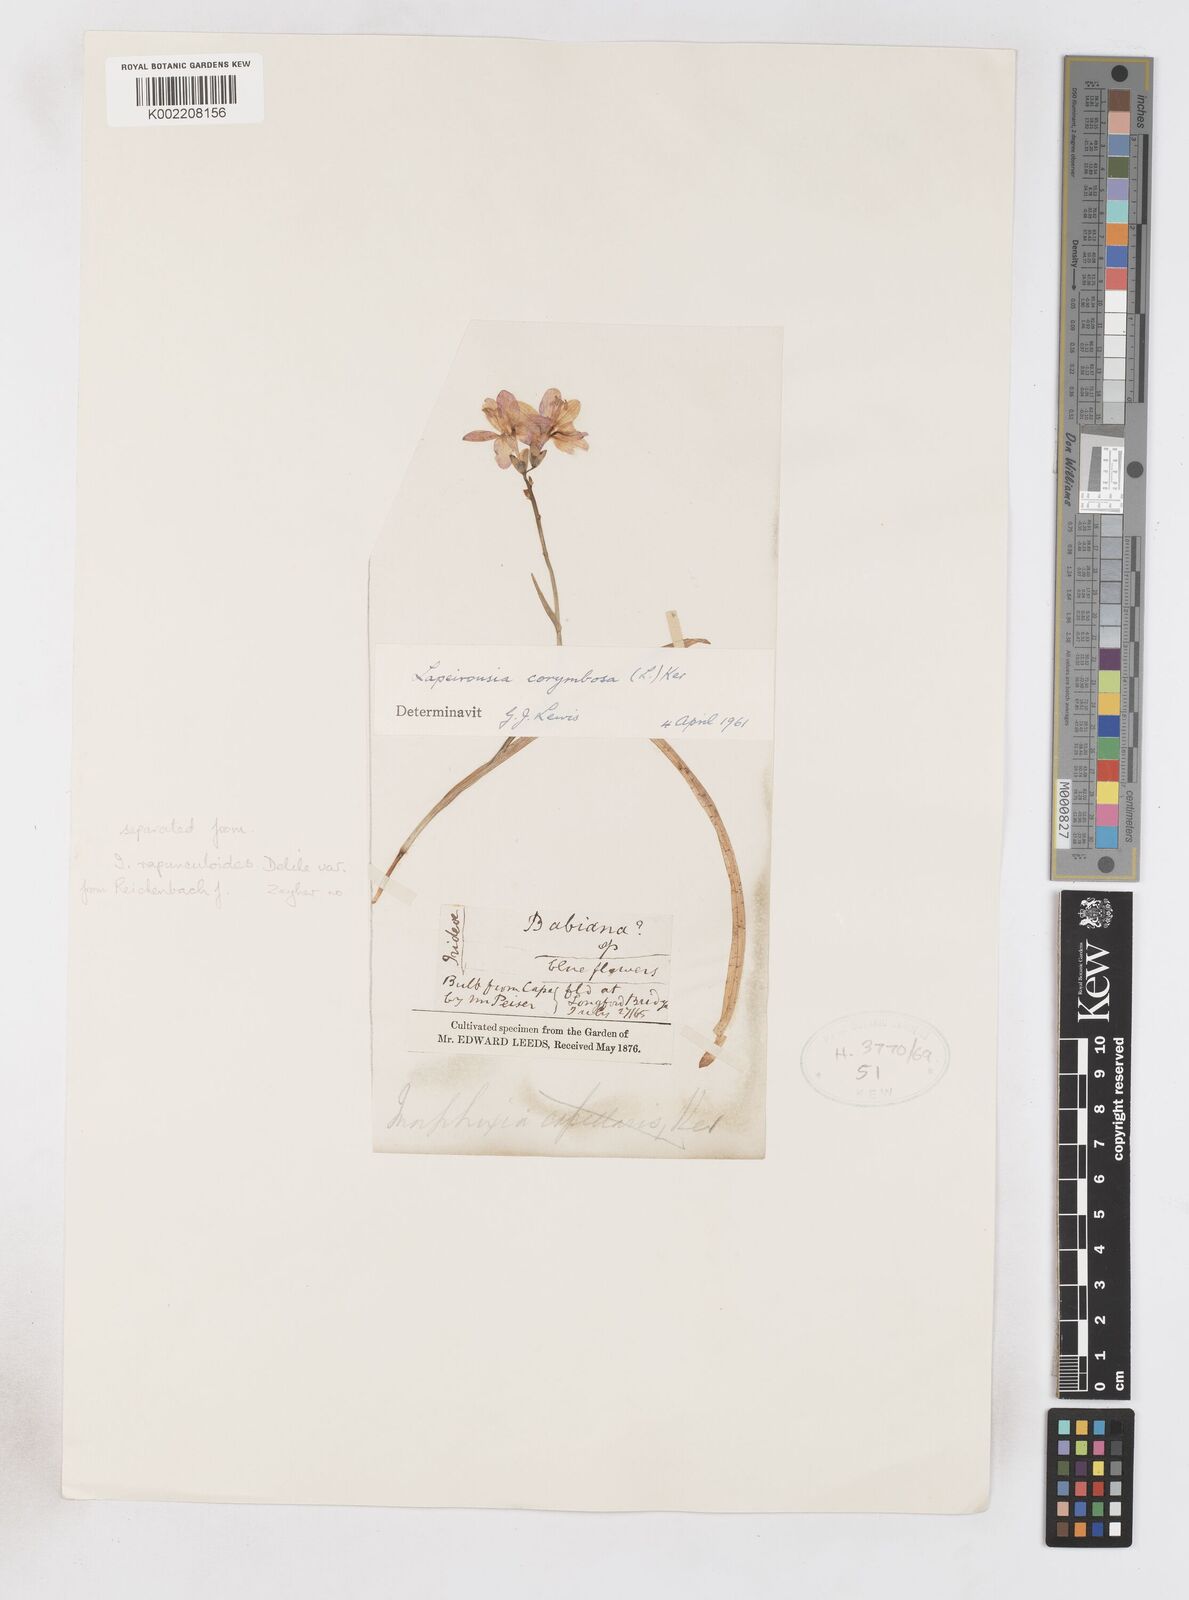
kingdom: Plantae
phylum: Tracheophyta
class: Liliopsida
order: Asparagales
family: Iridaceae
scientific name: Iridaceae
